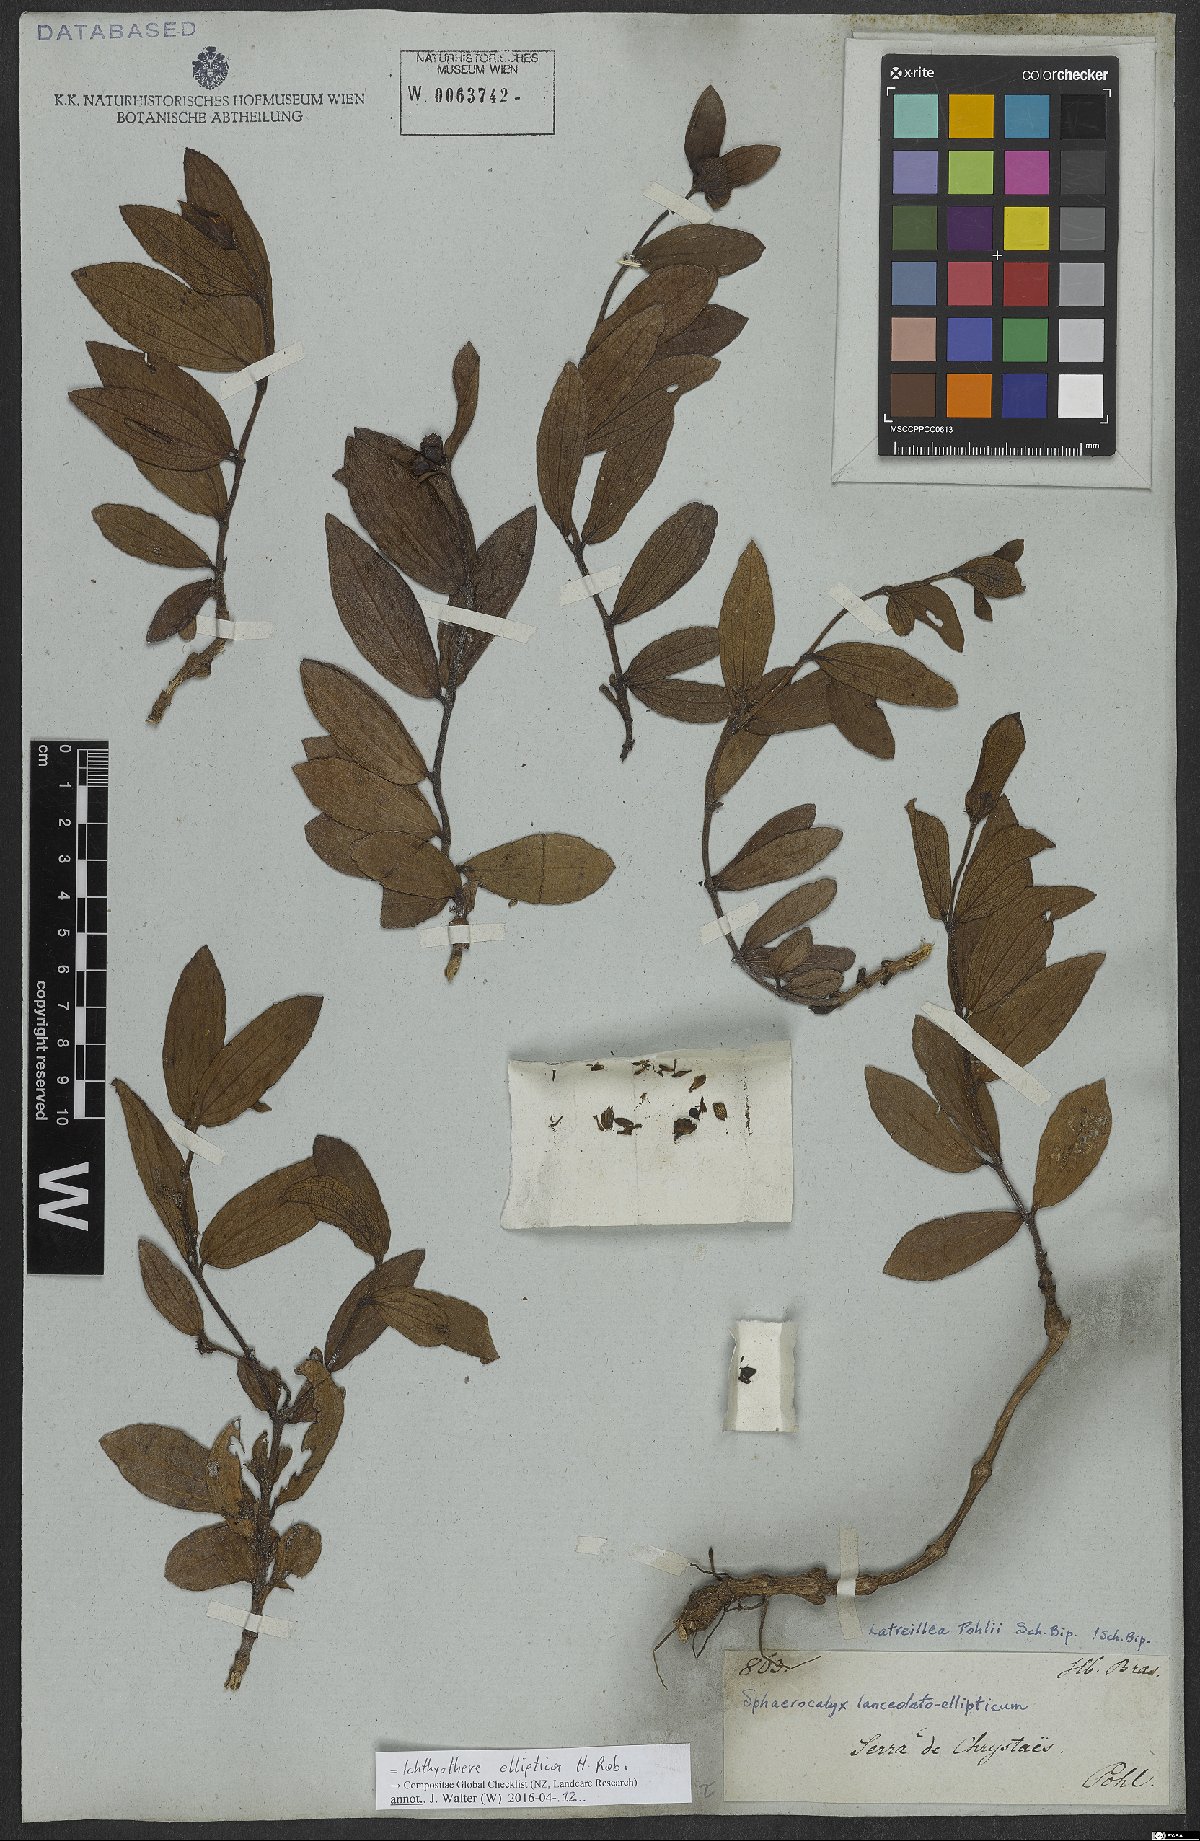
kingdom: Plantae
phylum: Tracheophyta
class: Magnoliopsida
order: Asterales
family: Asteraceae
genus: Ichthyothere
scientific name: Ichthyothere elliptica
